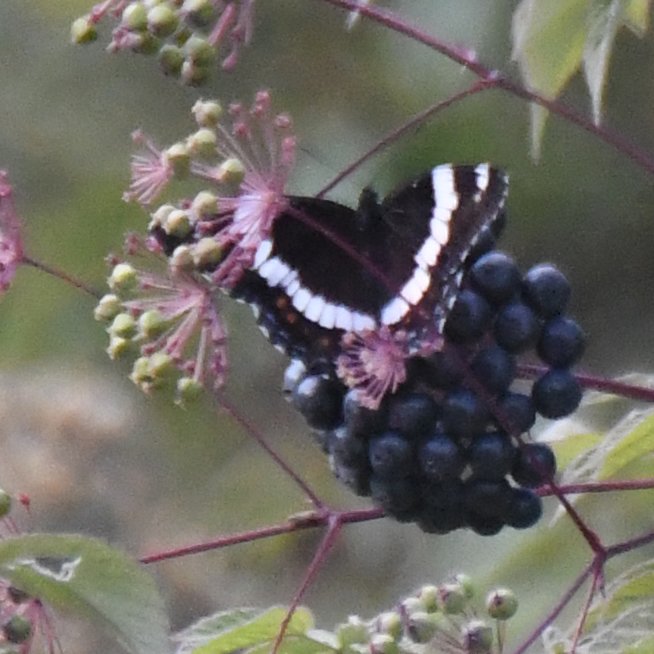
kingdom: Animalia
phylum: Arthropoda
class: Insecta
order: Lepidoptera
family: Nymphalidae
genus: Limenitis
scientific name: Limenitis arthemis
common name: Red-spotted Admiral
